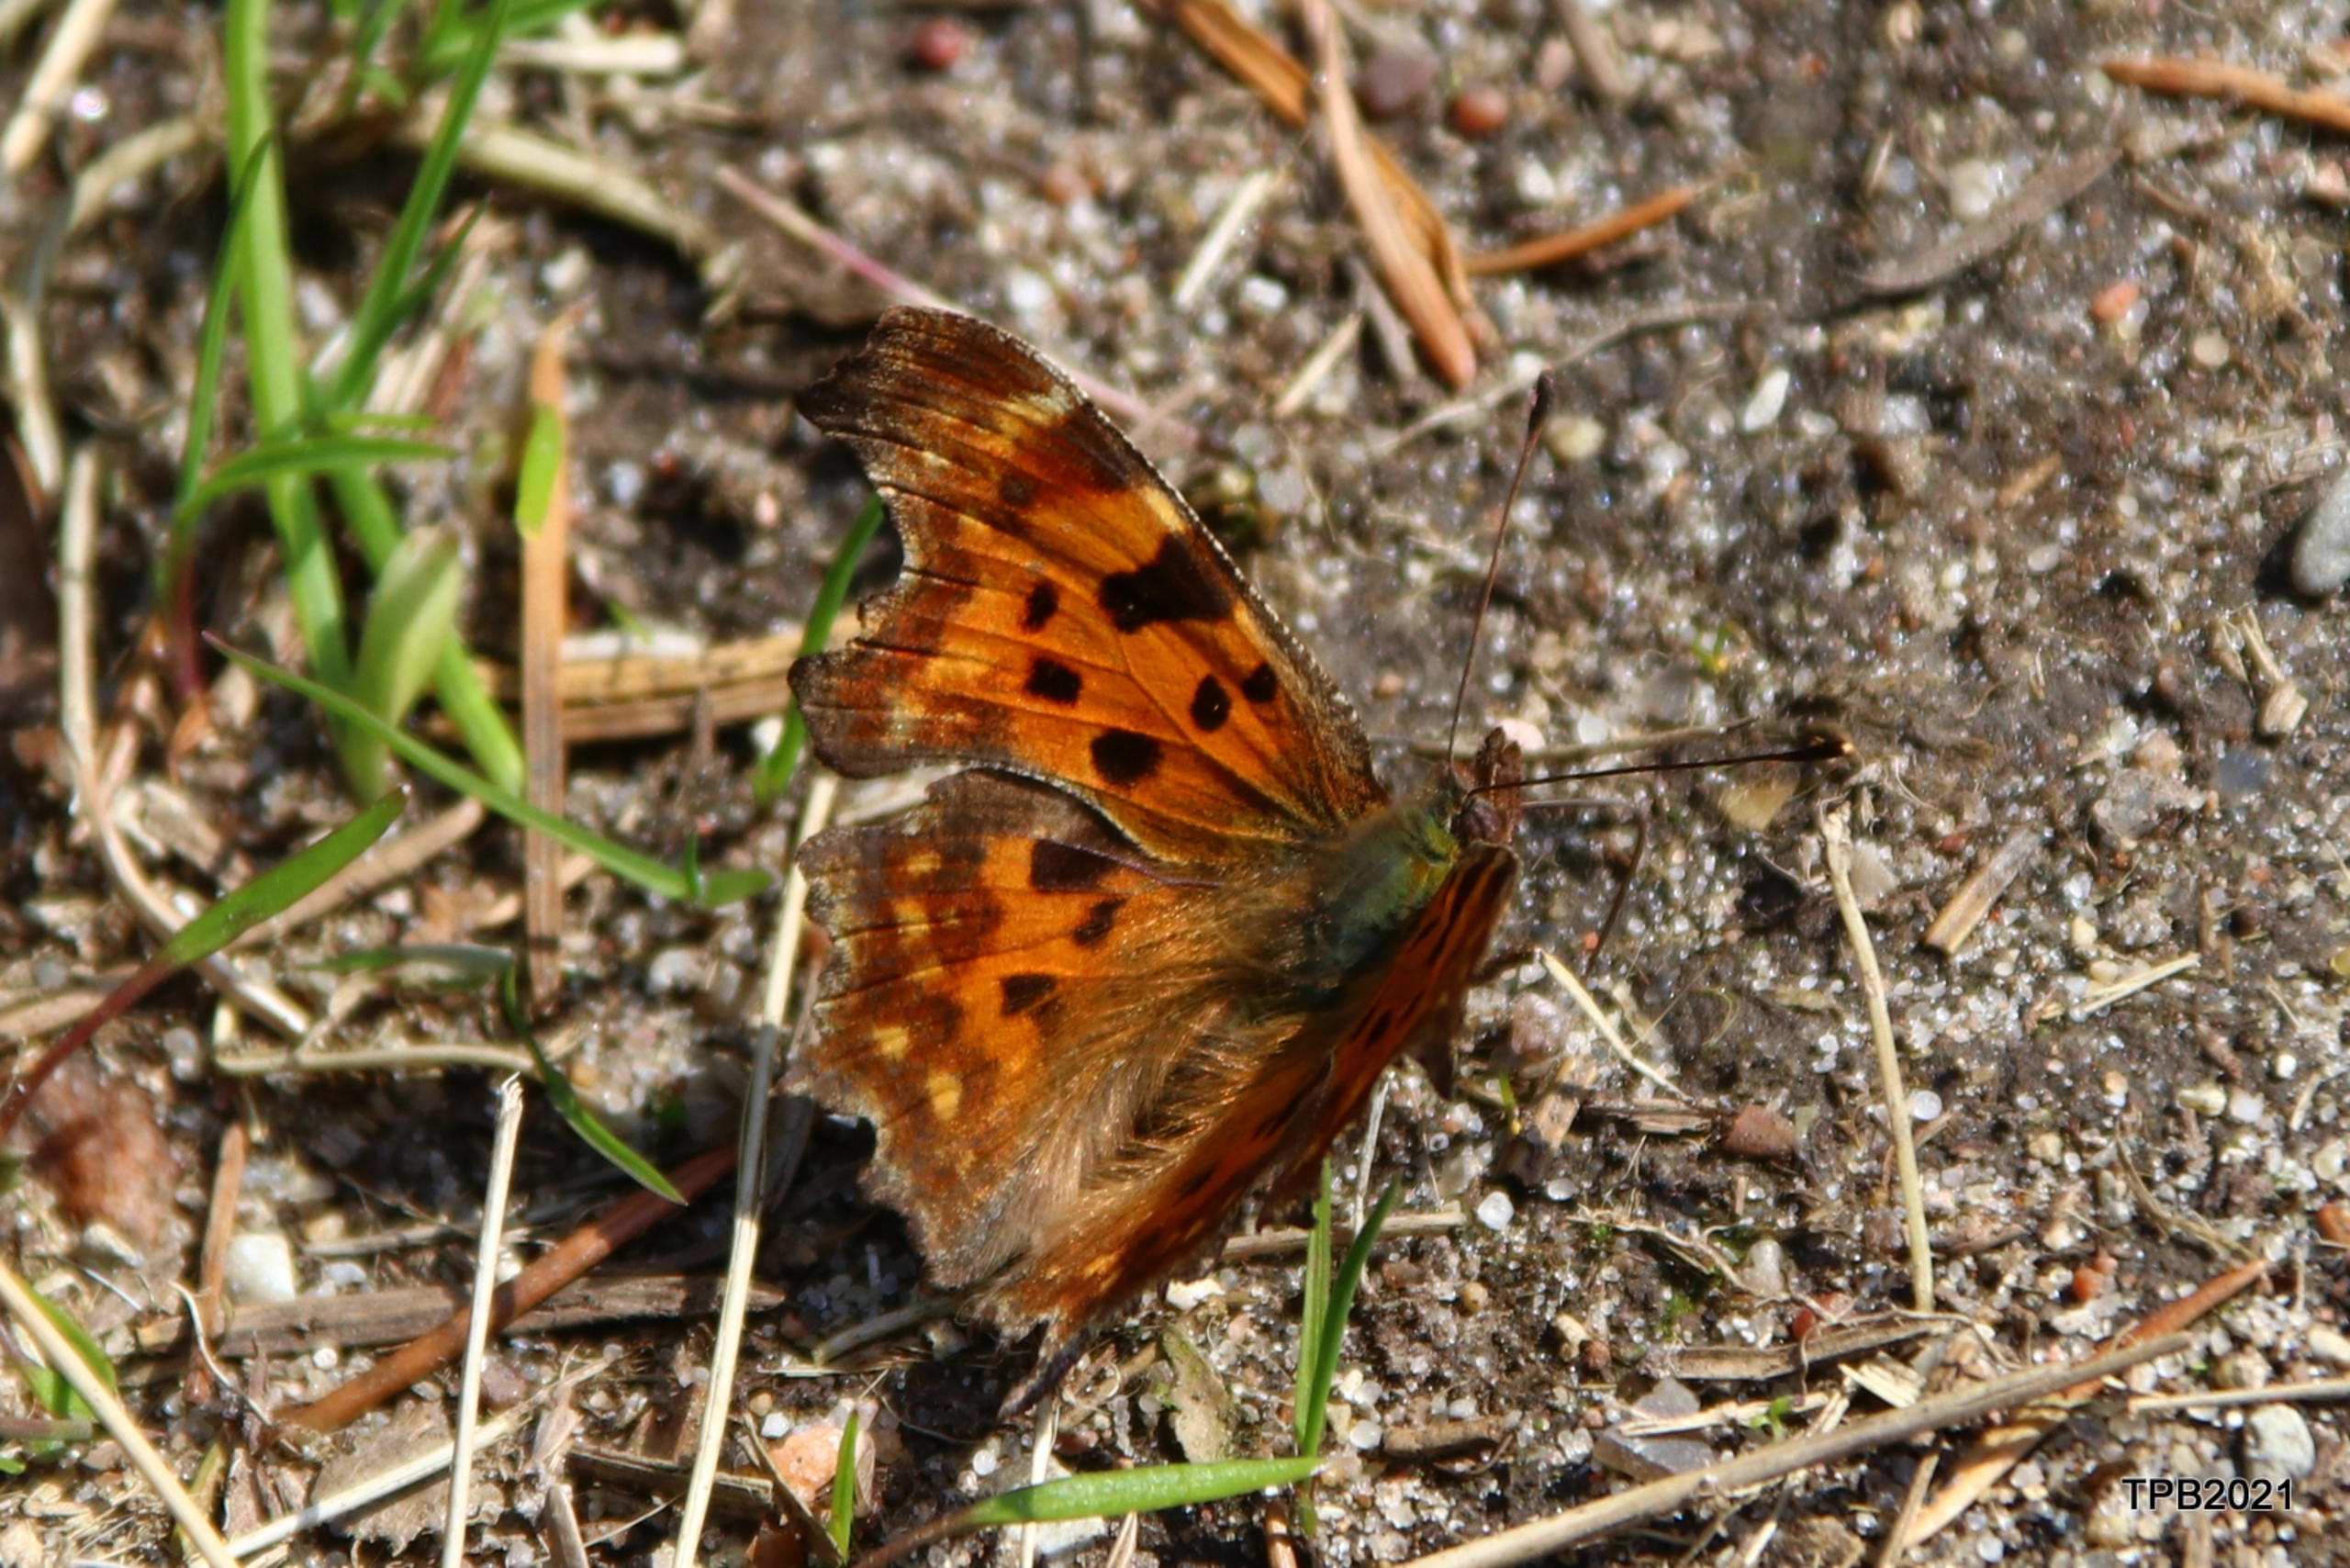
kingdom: Animalia
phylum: Arthropoda
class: Insecta
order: Lepidoptera
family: Nymphalidae
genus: Polygonia
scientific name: Polygonia c-album
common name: Det hvide C
